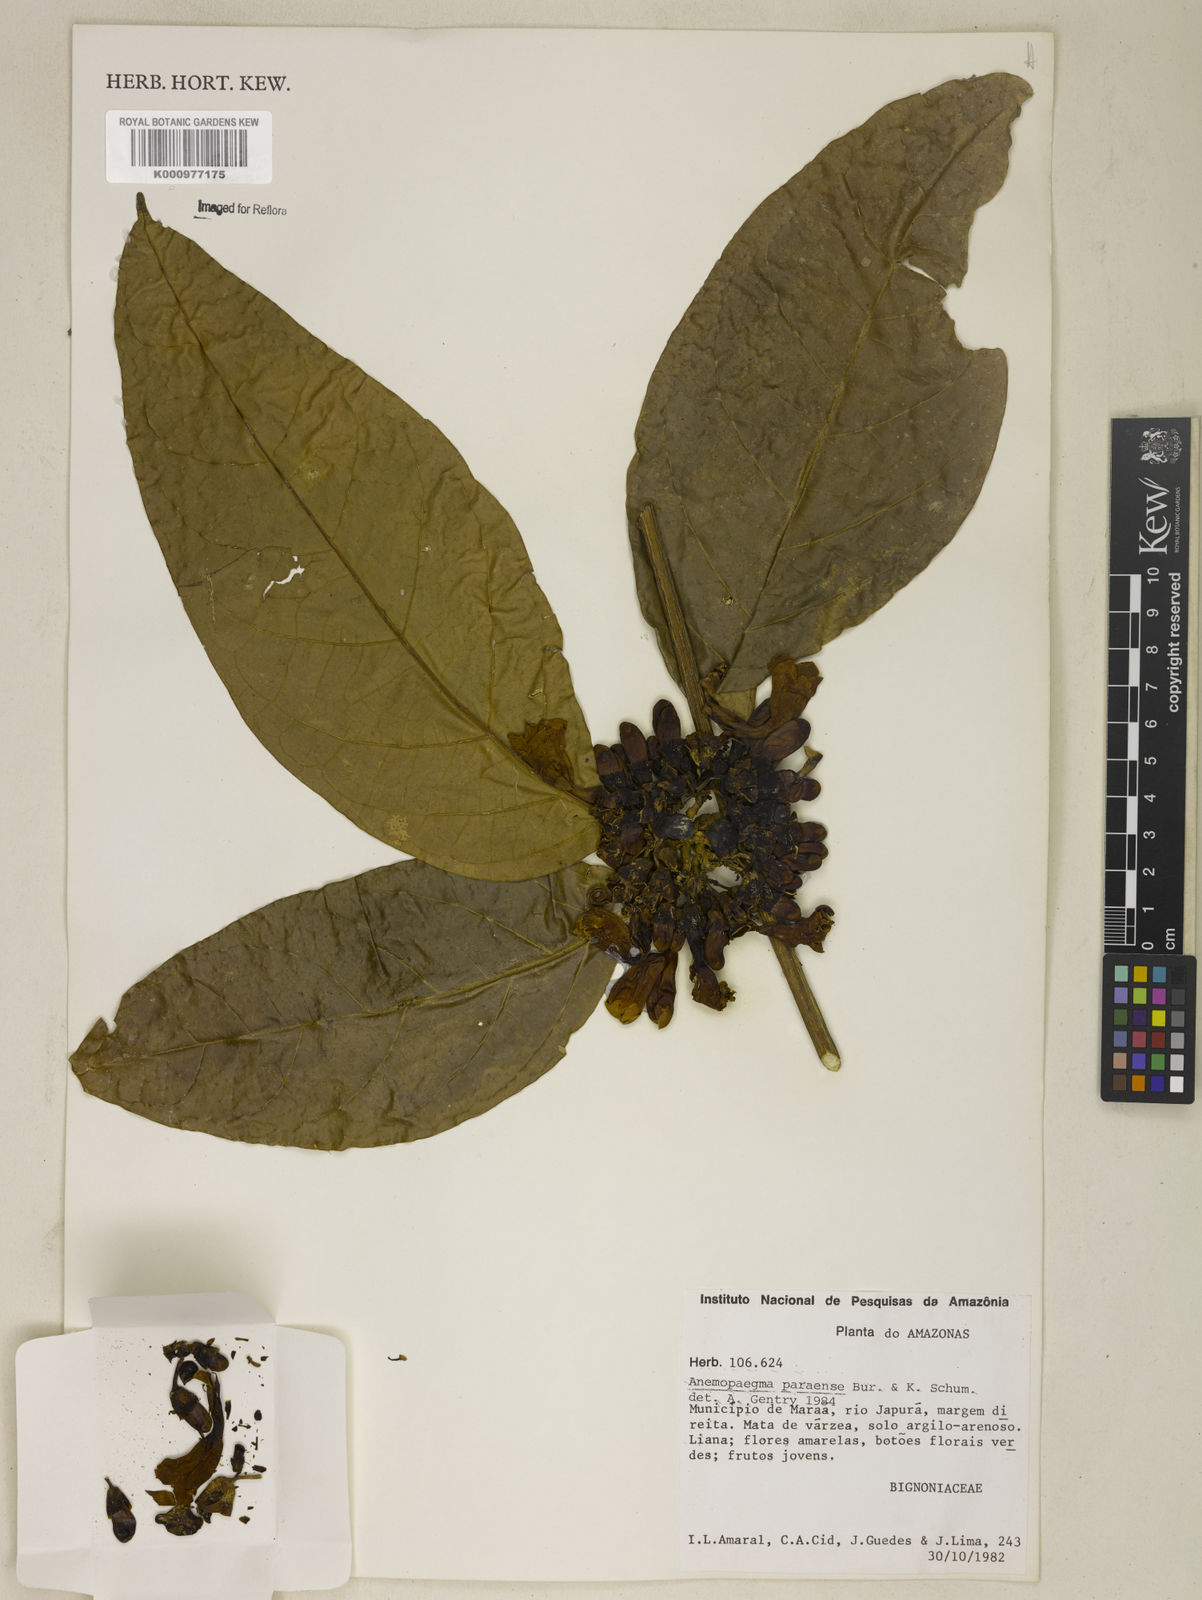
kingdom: Plantae
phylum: Tracheophyta
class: Magnoliopsida
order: Lamiales
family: Bignoniaceae
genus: Anemopaegma
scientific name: Anemopaegma
